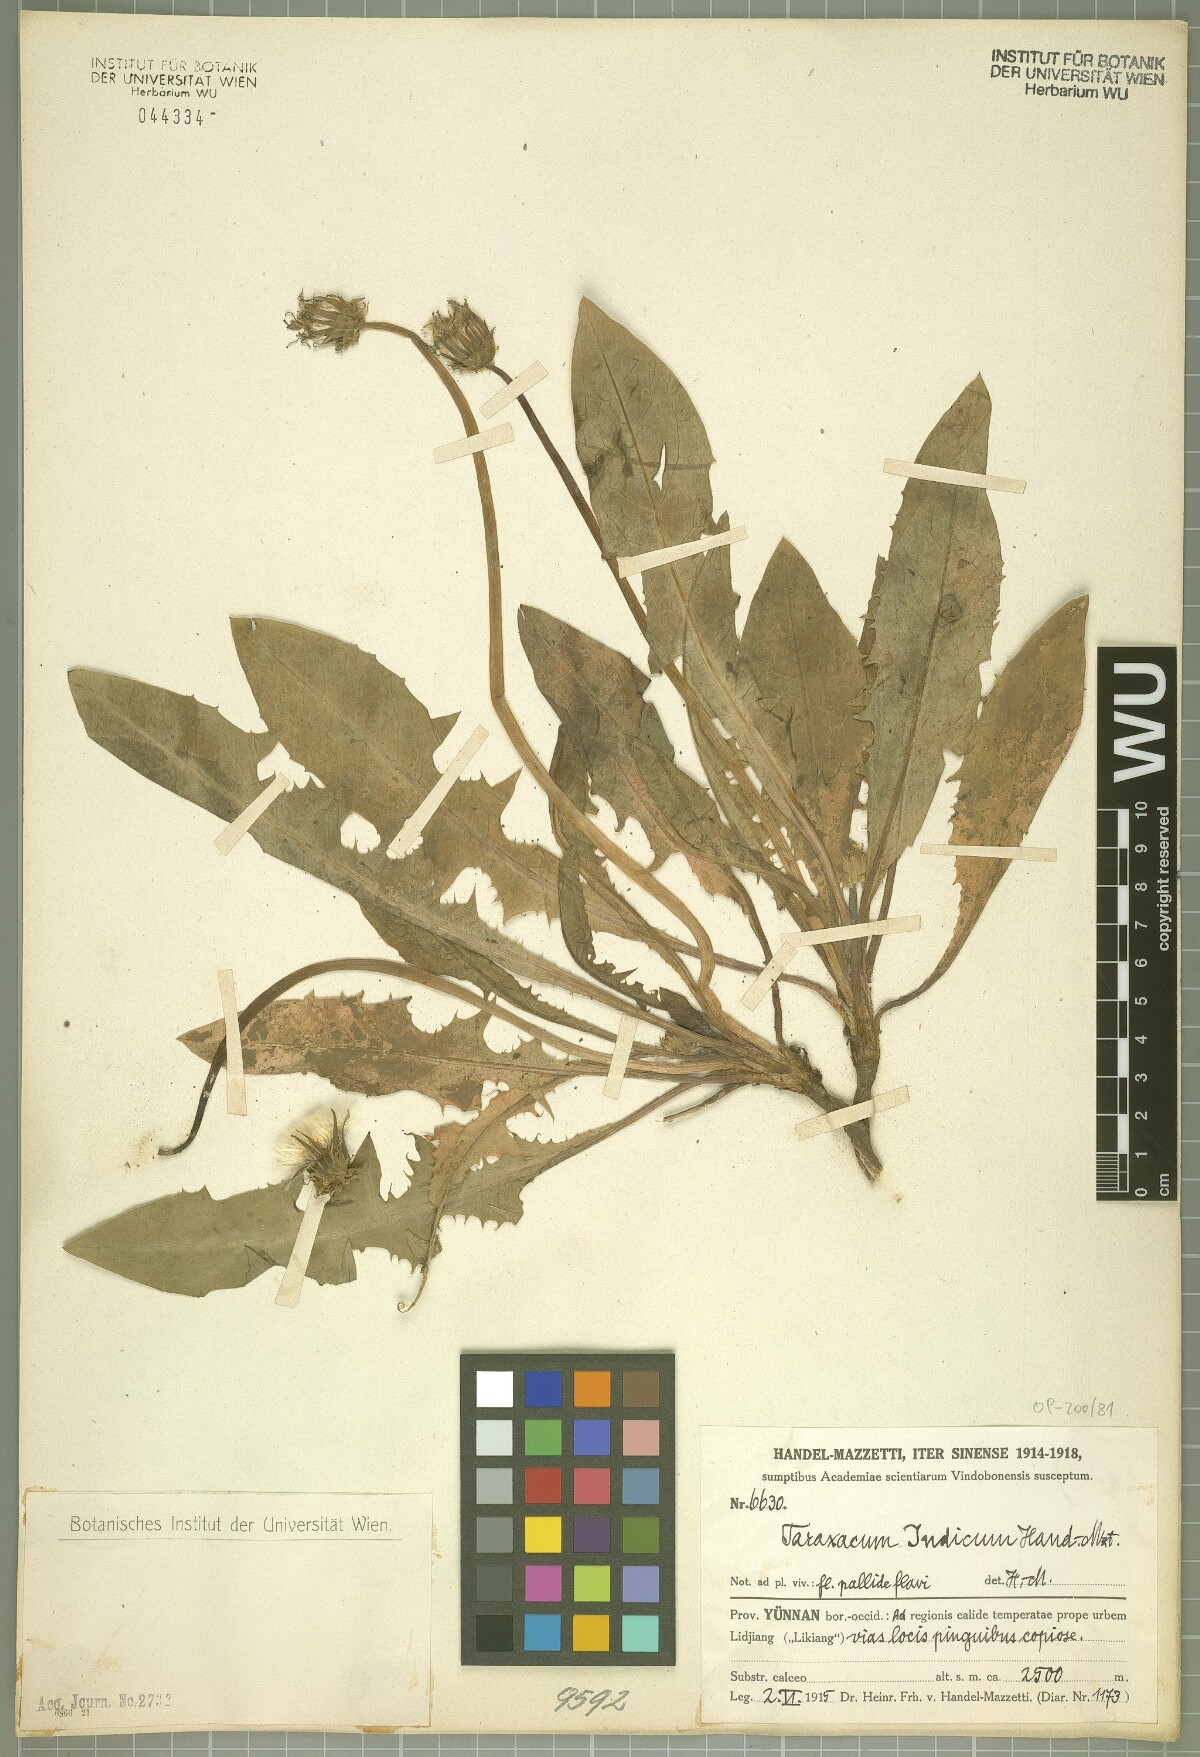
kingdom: Plantae
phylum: Tracheophyta
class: Magnoliopsida
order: Asterales
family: Asteraceae
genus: Taraxacum
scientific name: Taraxacum indicum
